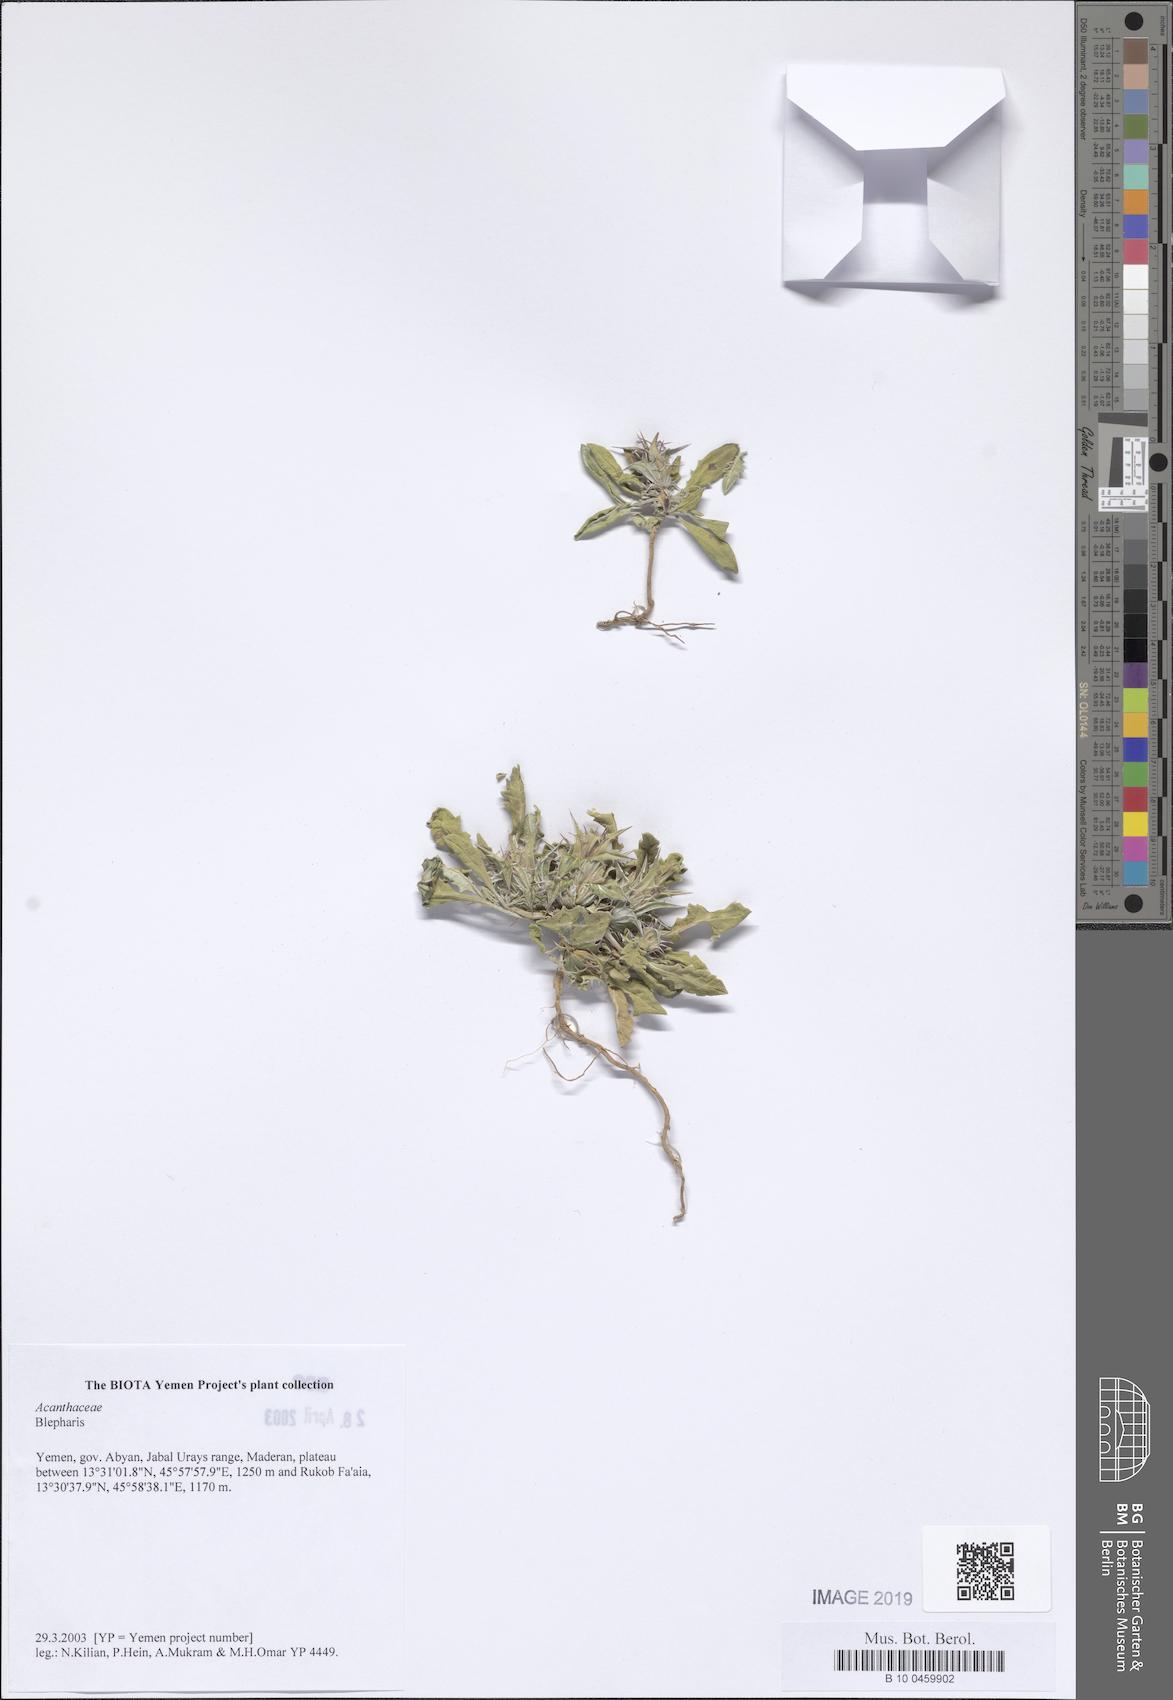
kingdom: Plantae
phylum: Tracheophyta
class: Magnoliopsida
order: Lamiales
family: Acanthaceae
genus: Blepharis
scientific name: Blepharis
